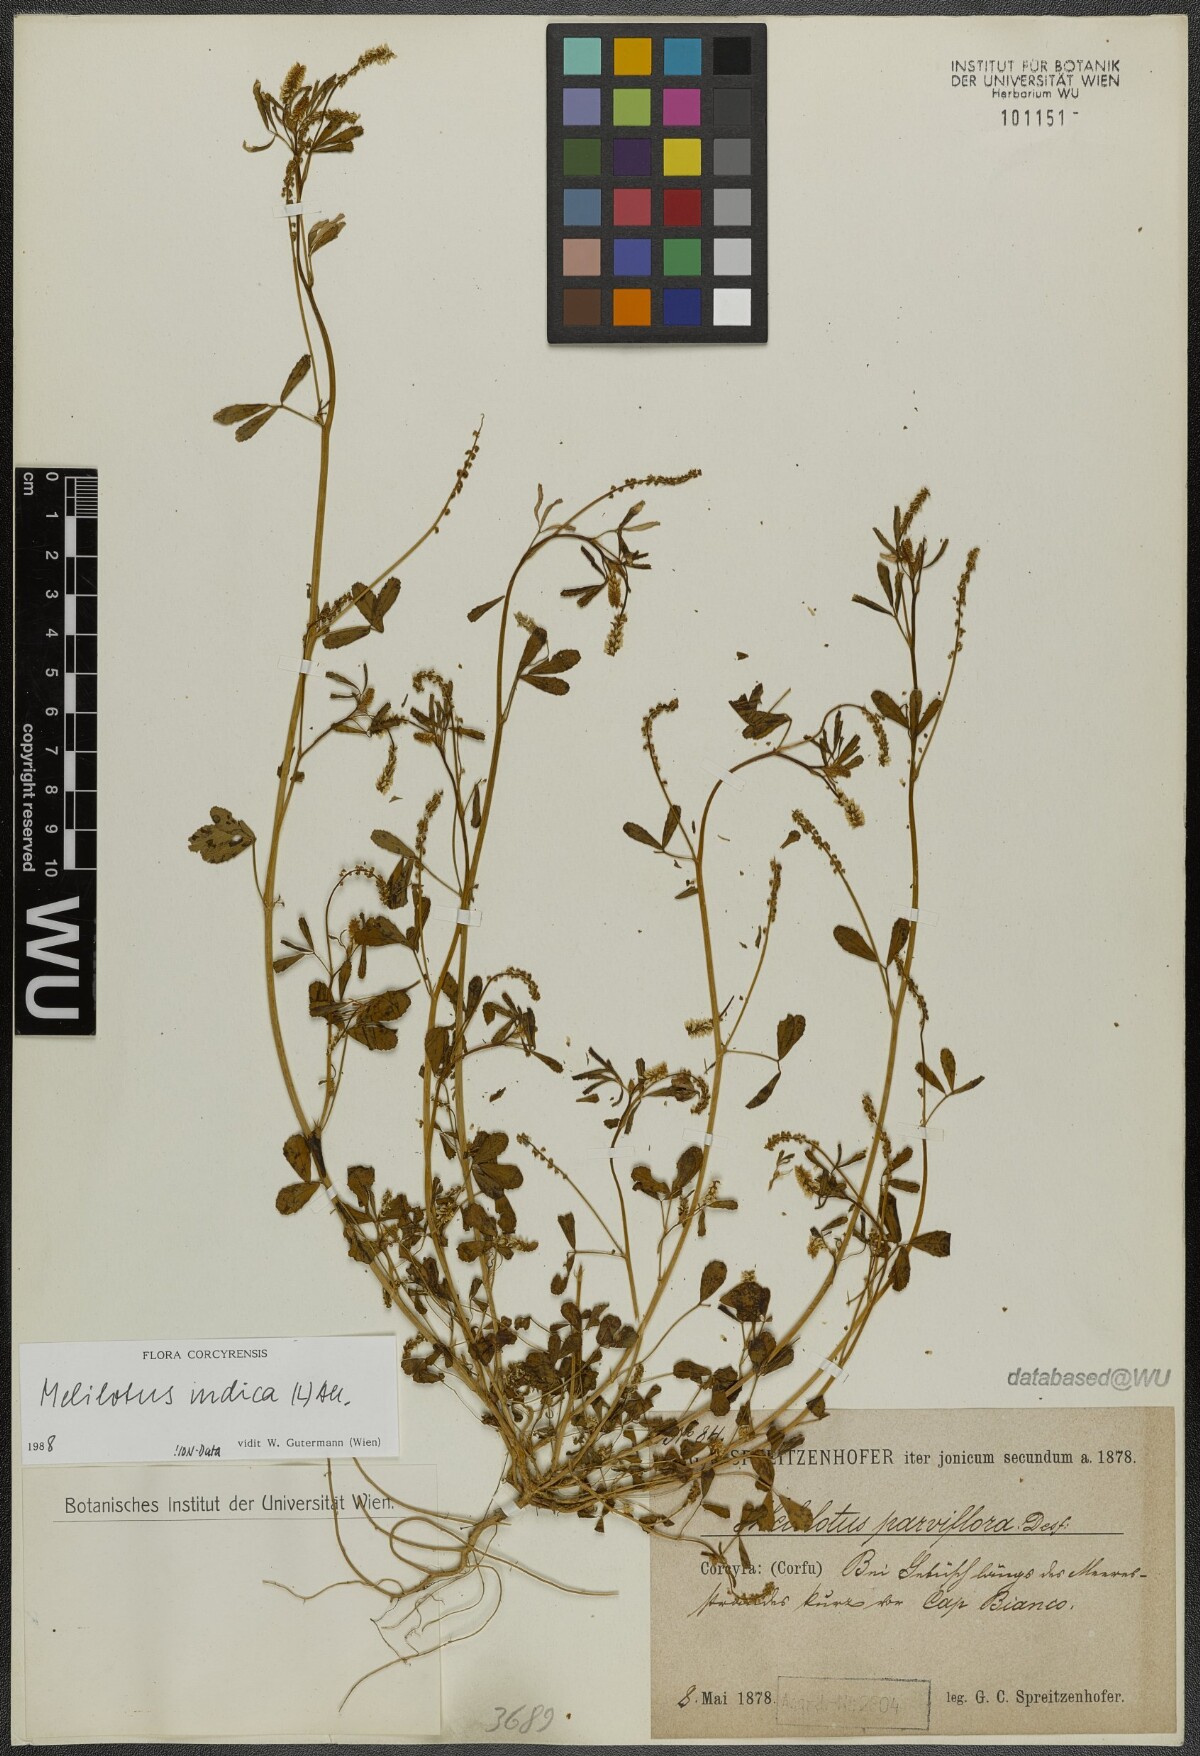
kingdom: Plantae
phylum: Tracheophyta
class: Magnoliopsida
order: Fabales
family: Fabaceae
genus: Melilotus
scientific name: Melilotus indicus
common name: Small melilot
